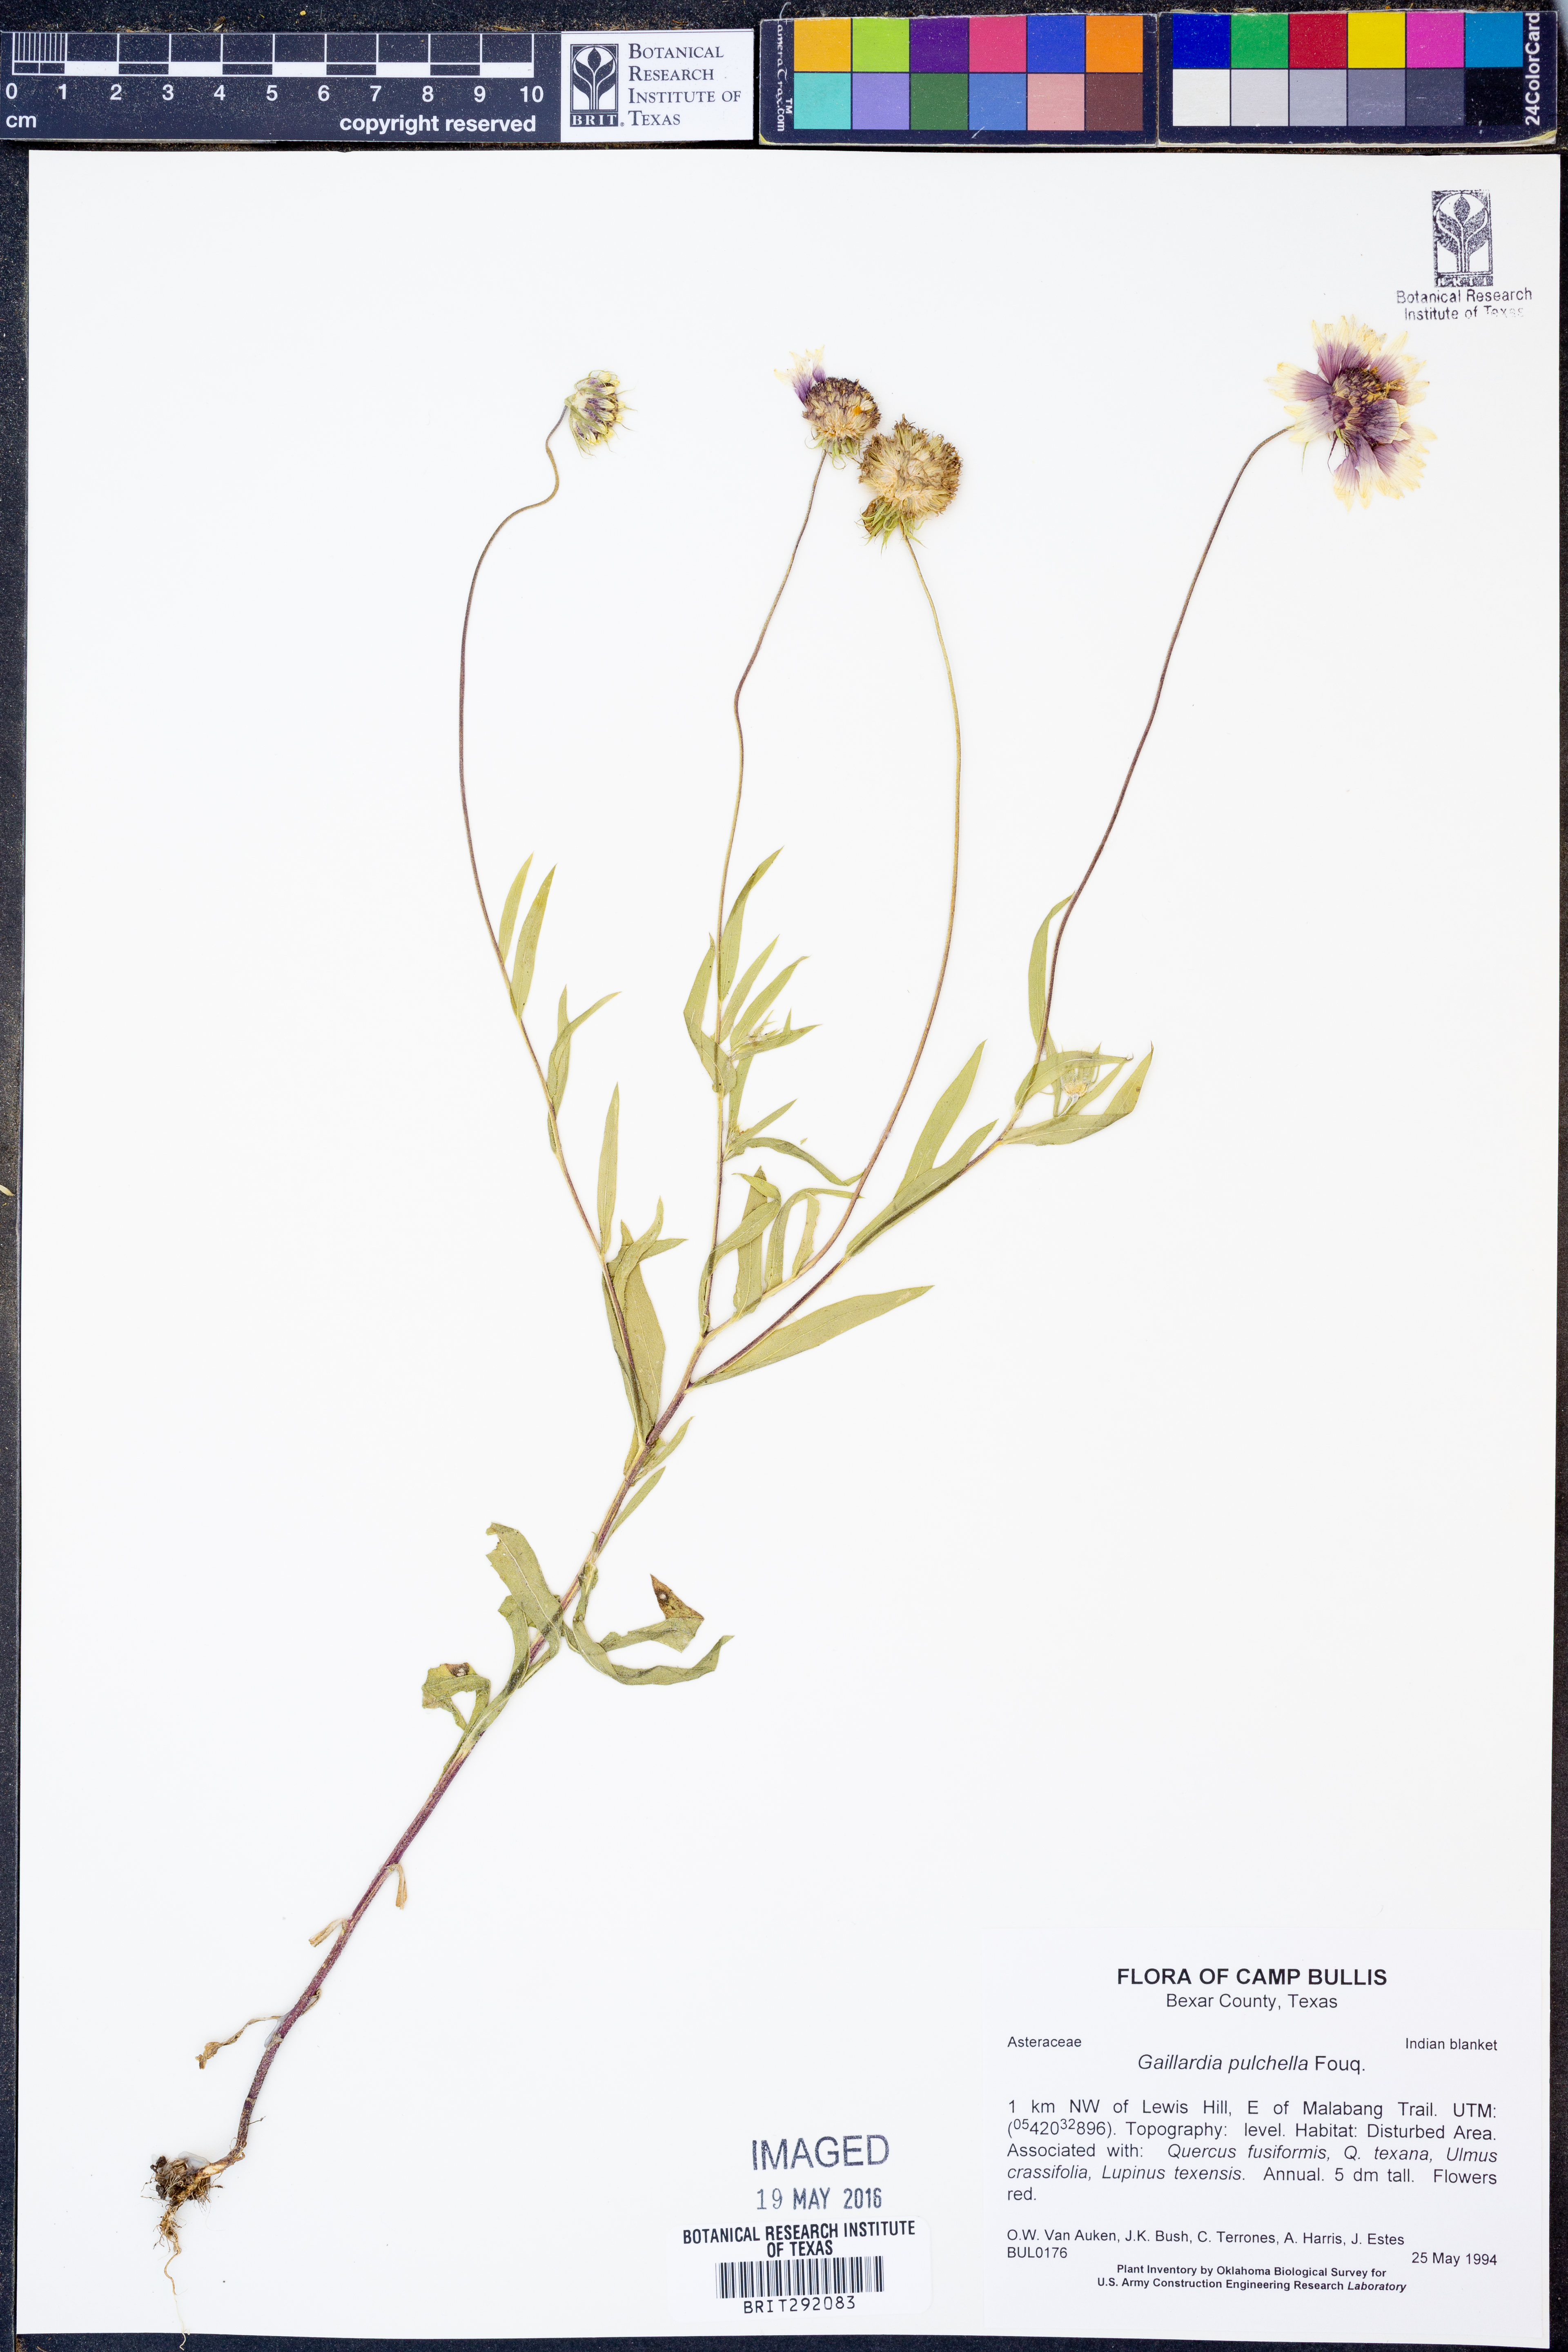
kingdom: Plantae
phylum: Tracheophyta
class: Magnoliopsida
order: Asterales
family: Asteraceae
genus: Gaillardia
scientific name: Gaillardia pulchella
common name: Firewheel
